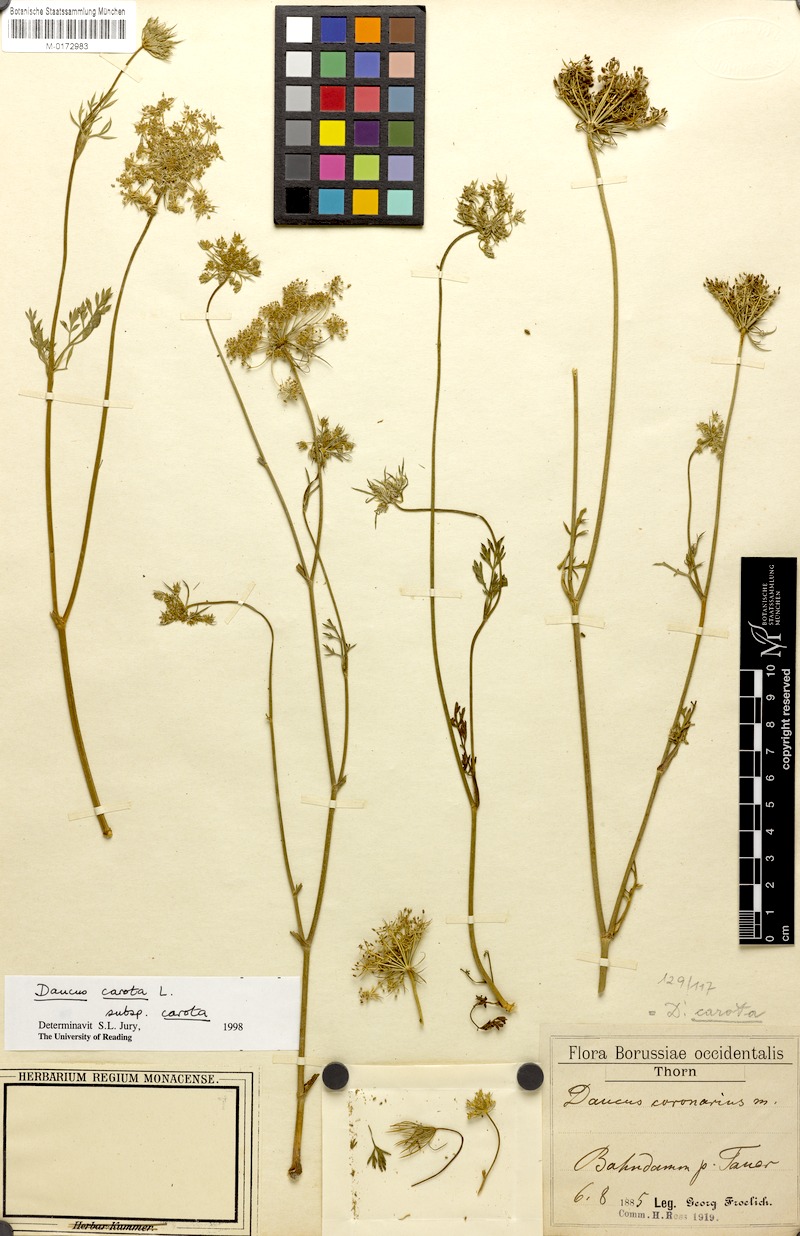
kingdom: Plantae
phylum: Tracheophyta
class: Magnoliopsida
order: Apiales
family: Apiaceae
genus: Daucus
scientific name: Daucus carota
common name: Wild carrot
